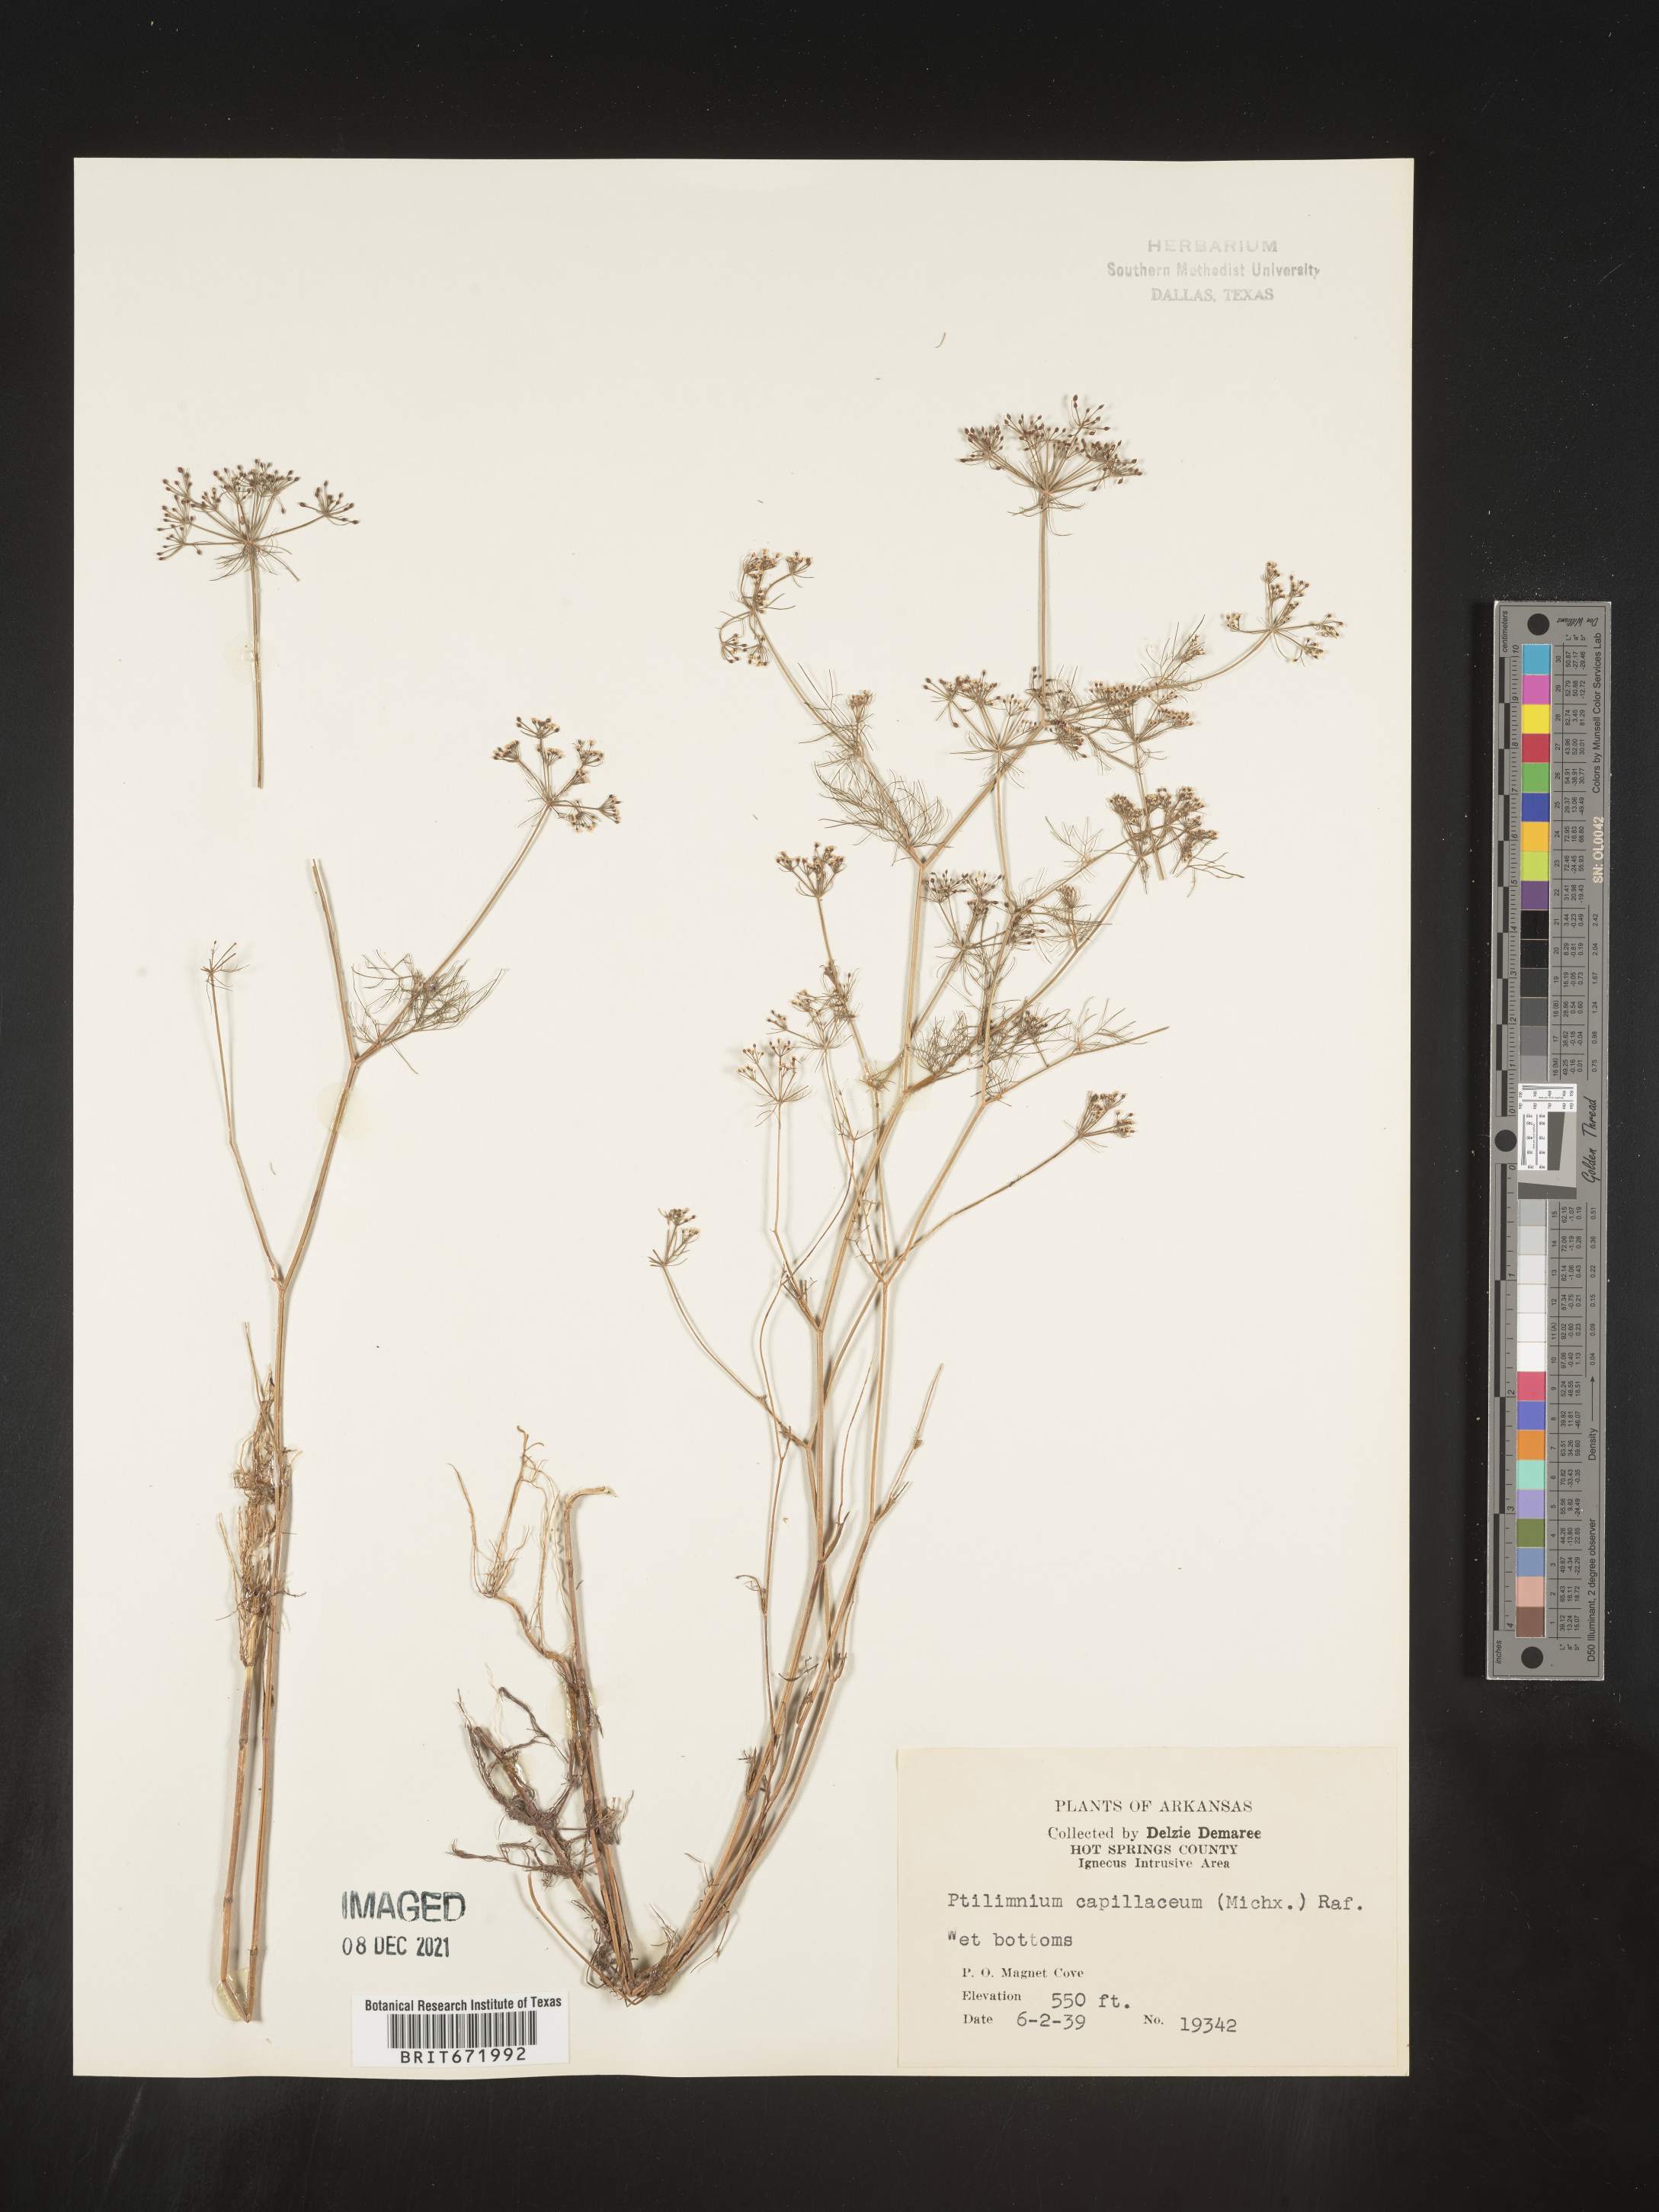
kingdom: Plantae
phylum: Tracheophyta
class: Magnoliopsida
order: Apiales
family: Apiaceae
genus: Ptilimnium
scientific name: Ptilimnium capillaceum
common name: Herbwilliam
